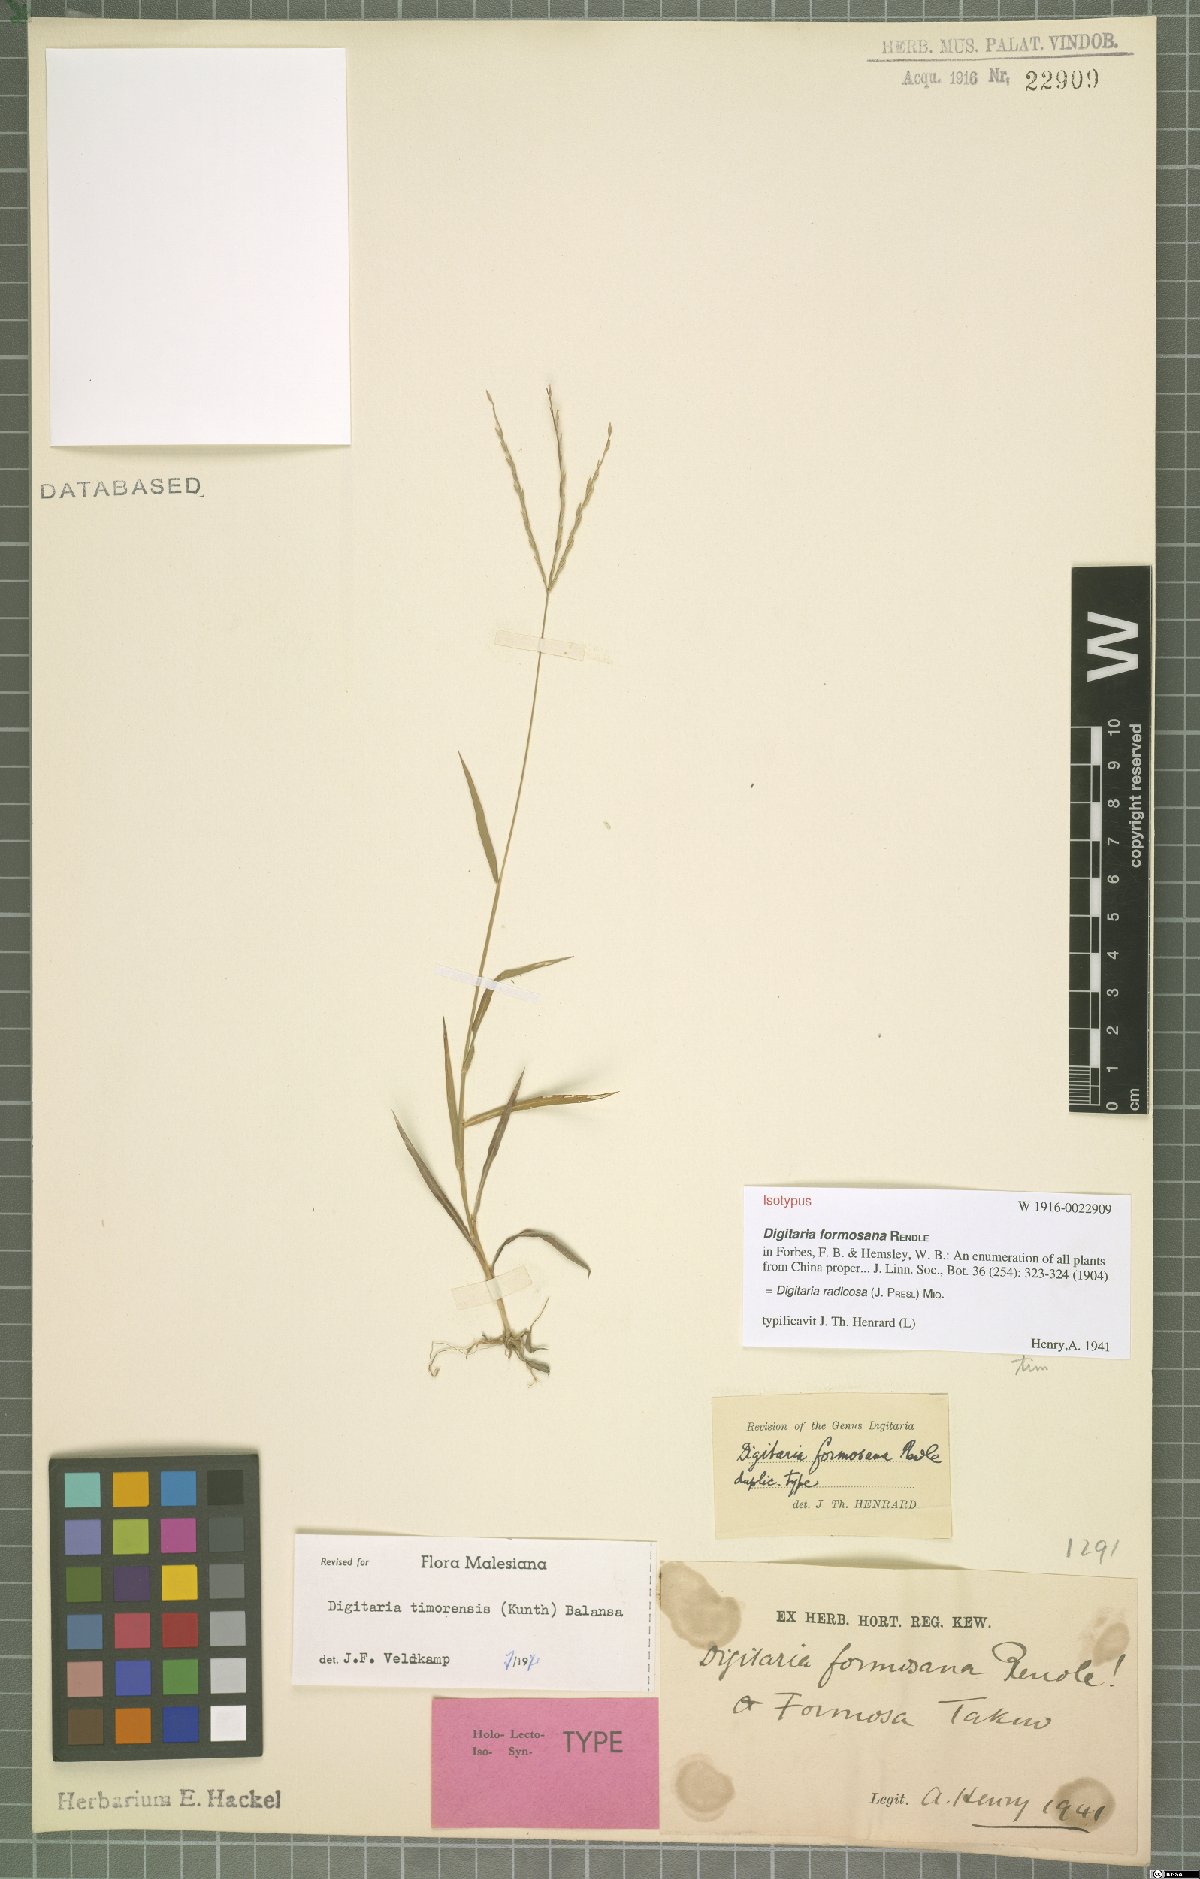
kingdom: Plantae
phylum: Tracheophyta
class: Liliopsida
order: Poales
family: Poaceae
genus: Digitaria
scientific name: Digitaria radicosa
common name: Trailing crabgrass
